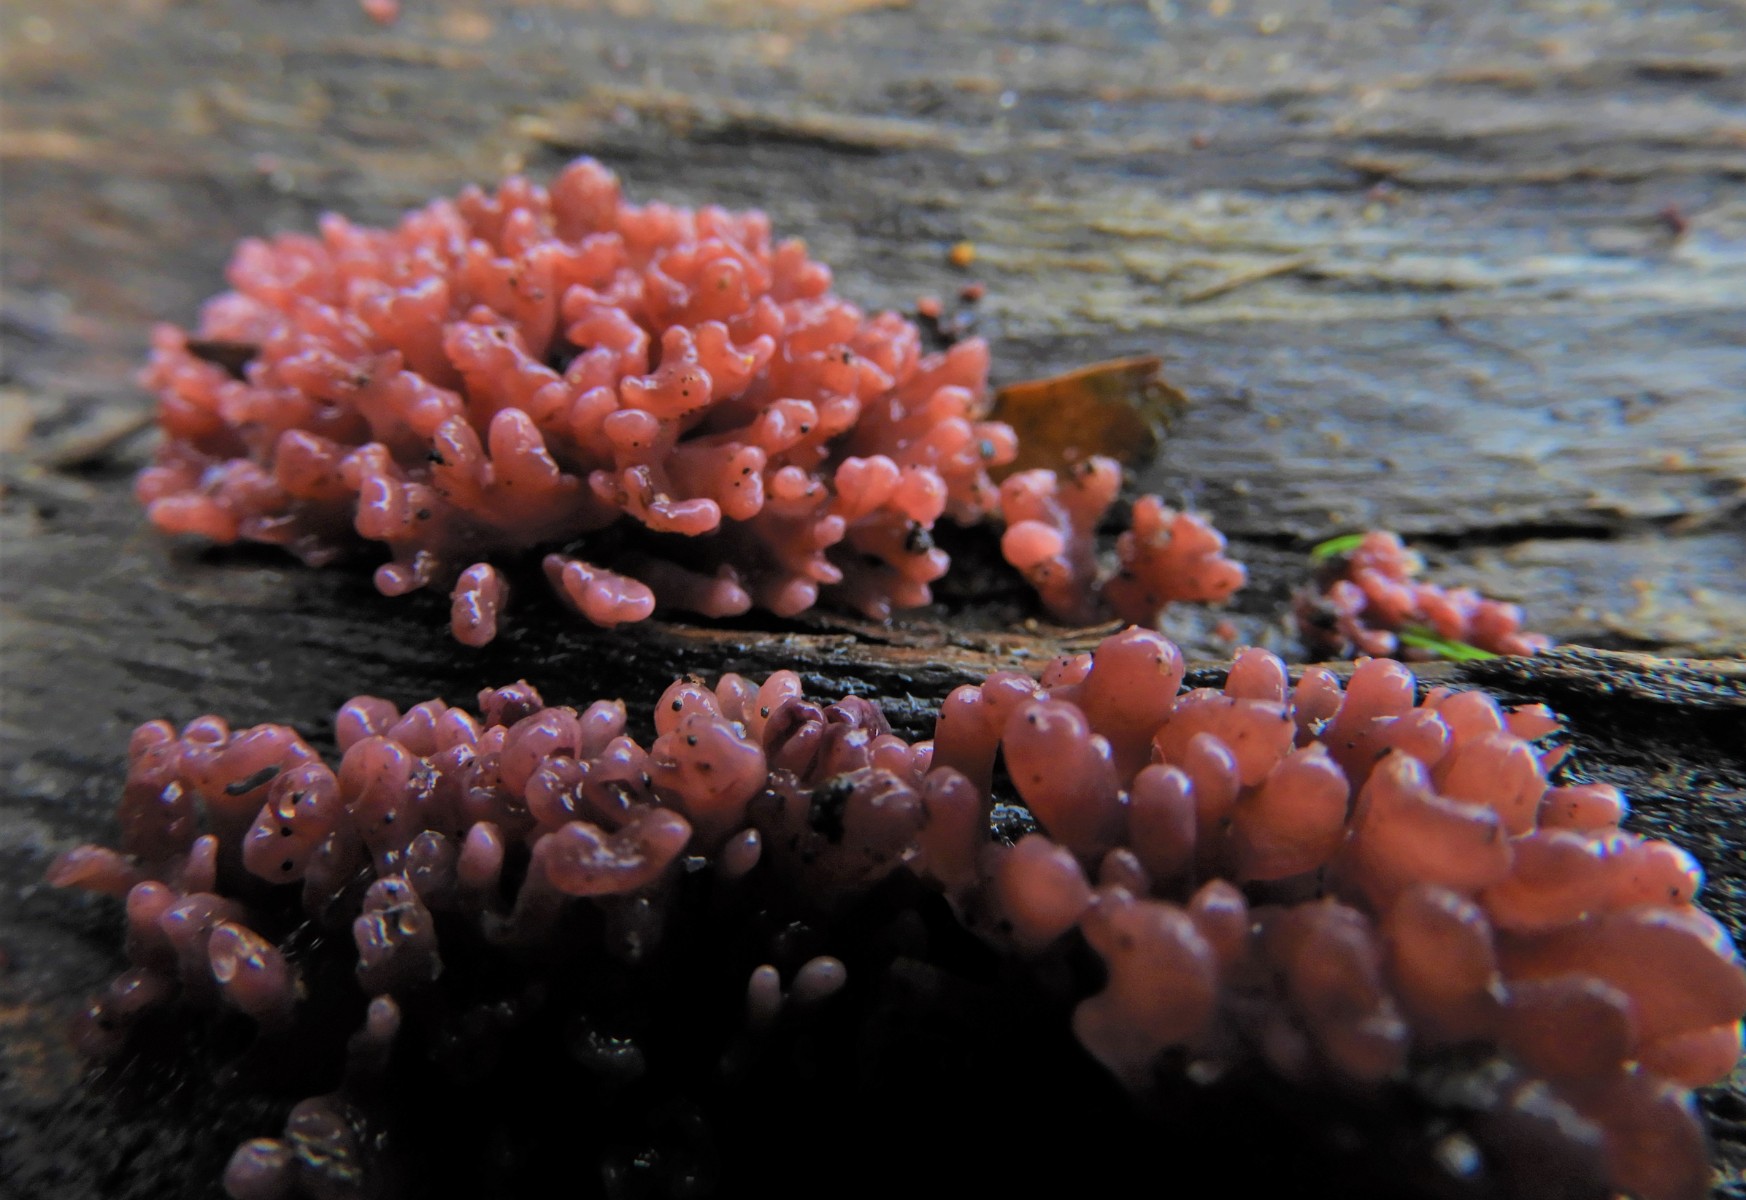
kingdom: Fungi
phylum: Ascomycota
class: Leotiomycetes
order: Helotiales
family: Gelatinodiscaceae
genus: Ascocoryne
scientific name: Ascocoryne sarcoides
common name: rødlilla sejskive
